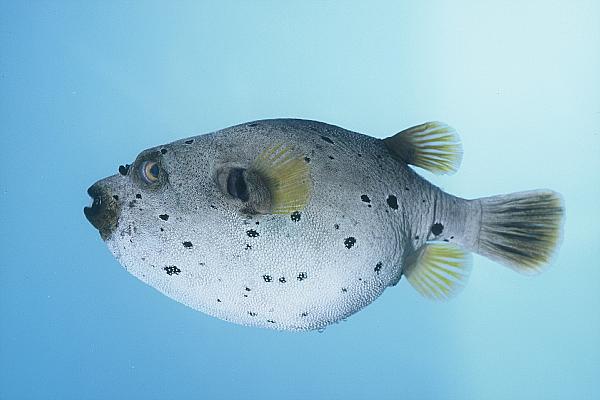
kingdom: Animalia
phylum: Chordata
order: Tetraodontiformes
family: Tetraodontidae
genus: Arothron
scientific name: Arothron nigropunctatus
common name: Black spotted blow fish
